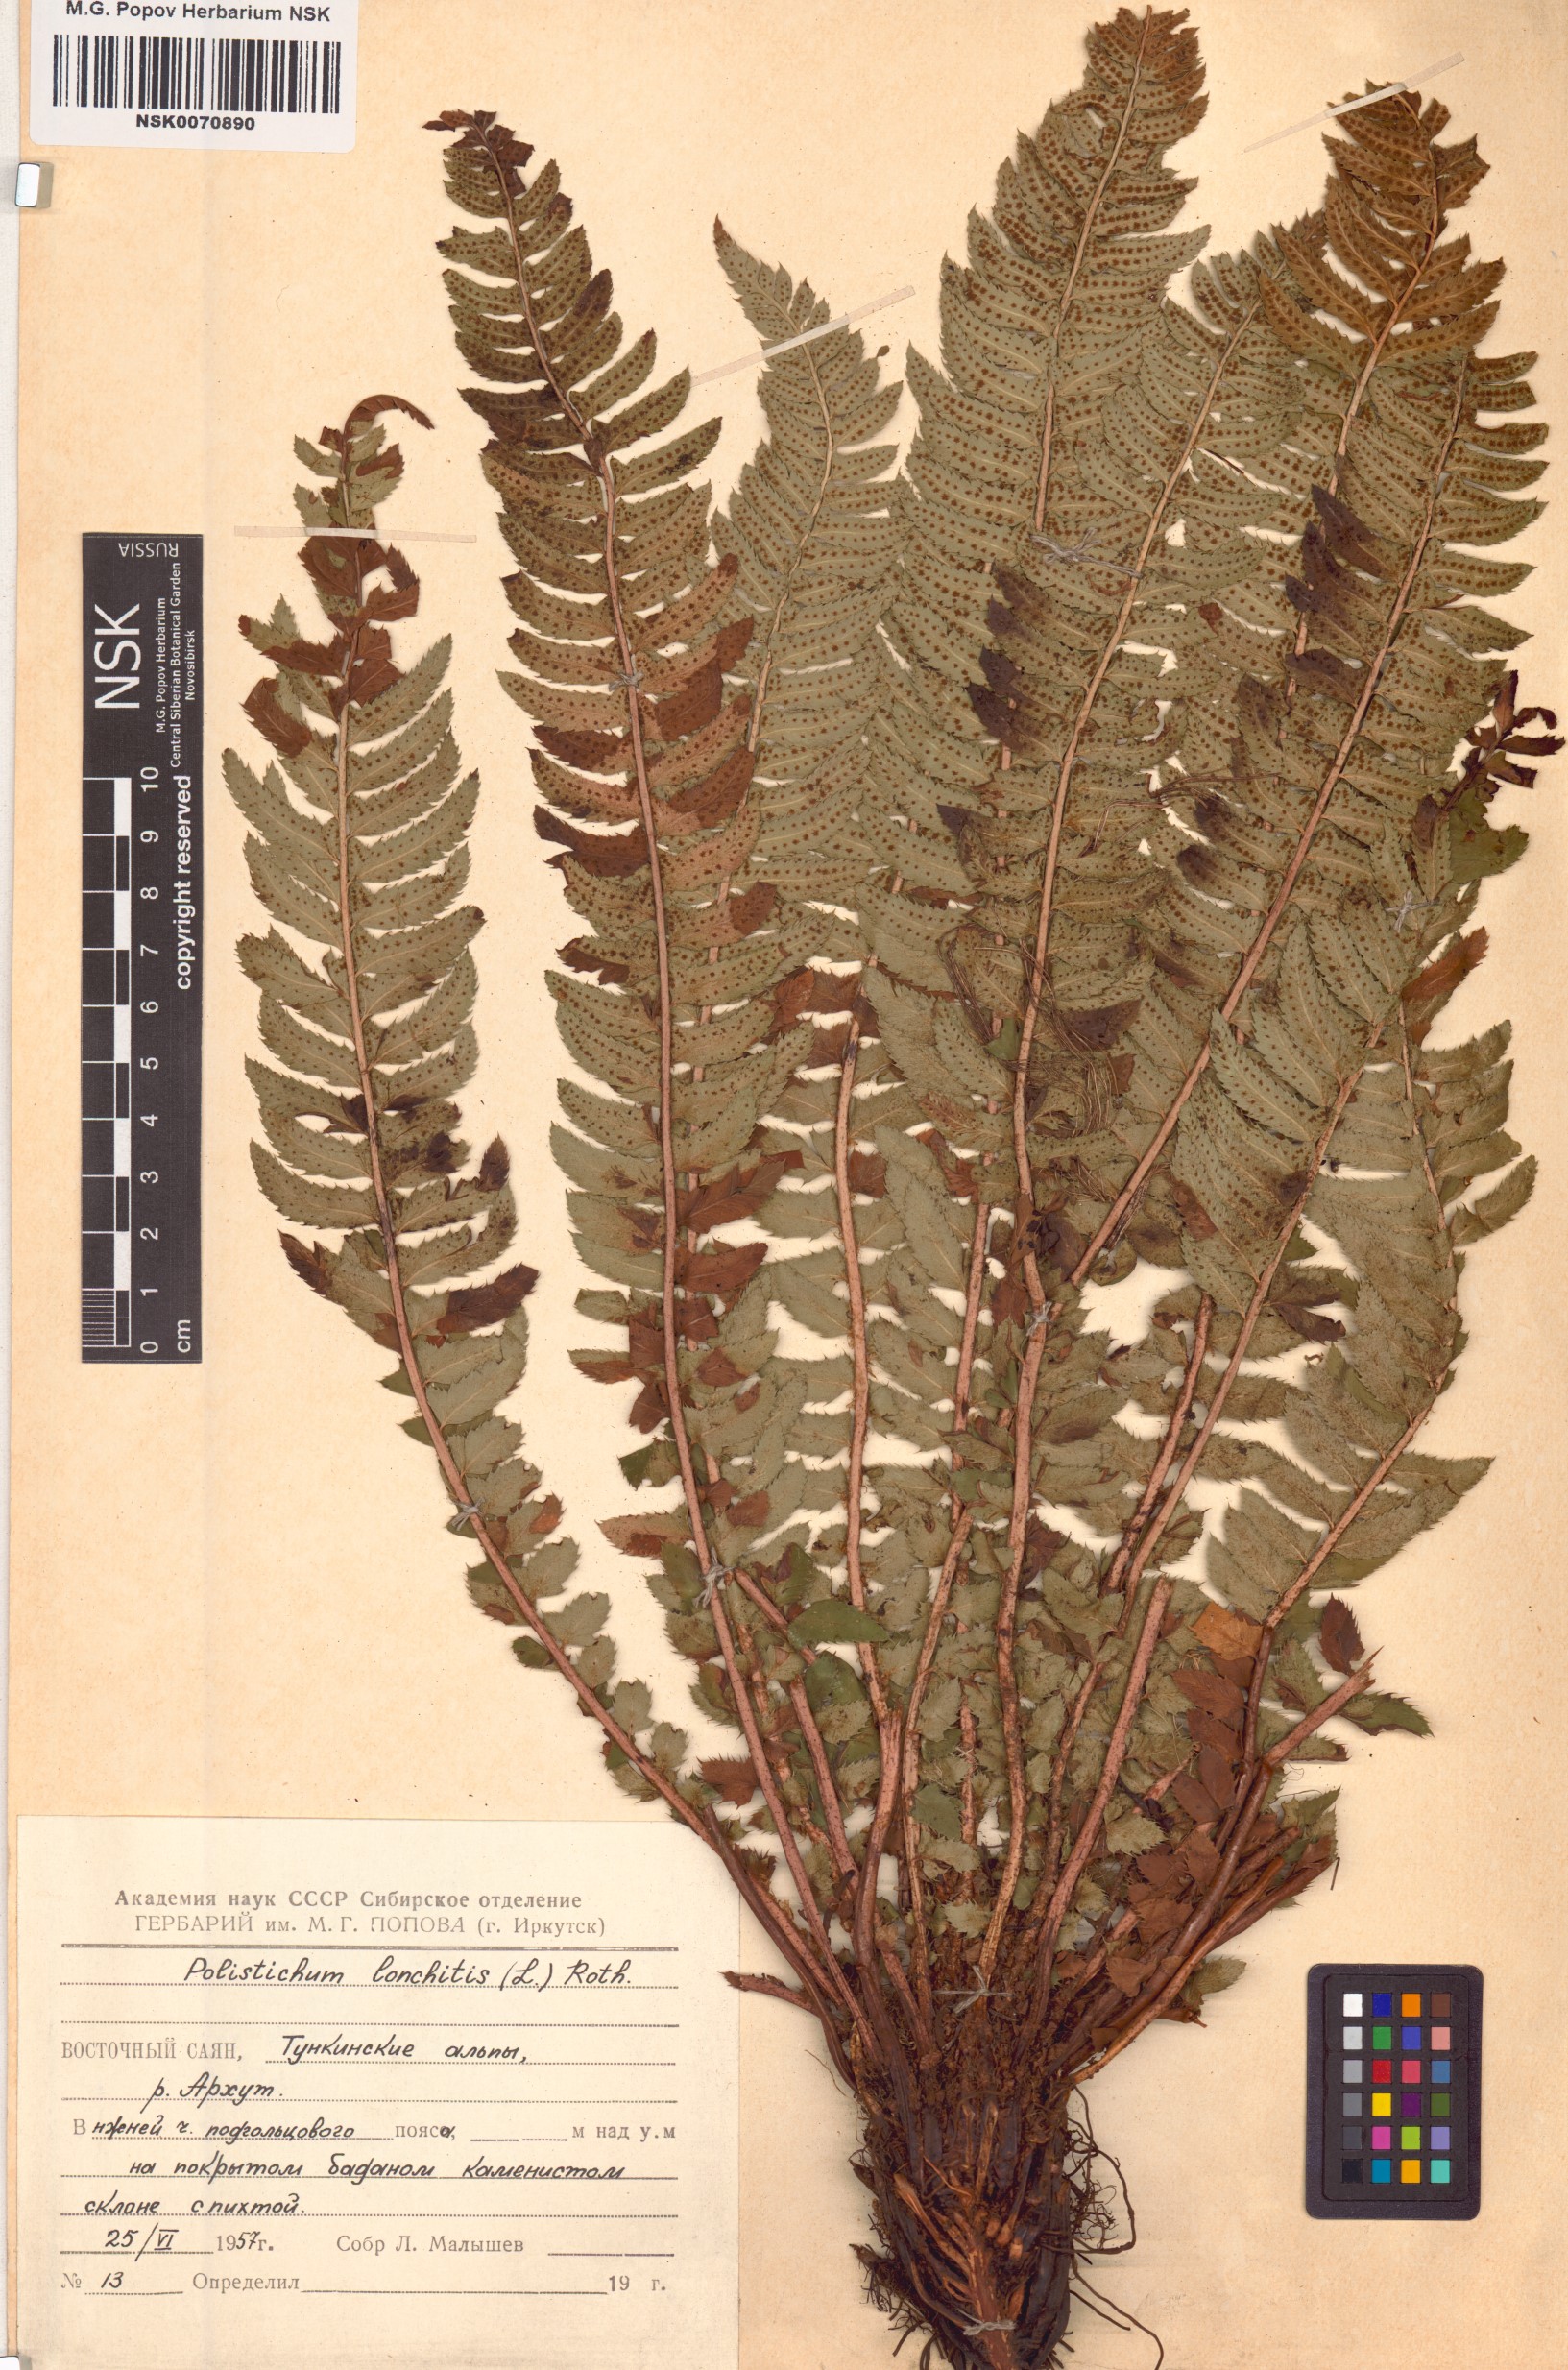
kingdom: Plantae
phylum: Tracheophyta
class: Polypodiopsida
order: Polypodiales
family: Dryopteridaceae
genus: Polystichum
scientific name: Polystichum lonchitis
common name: Holly fern
